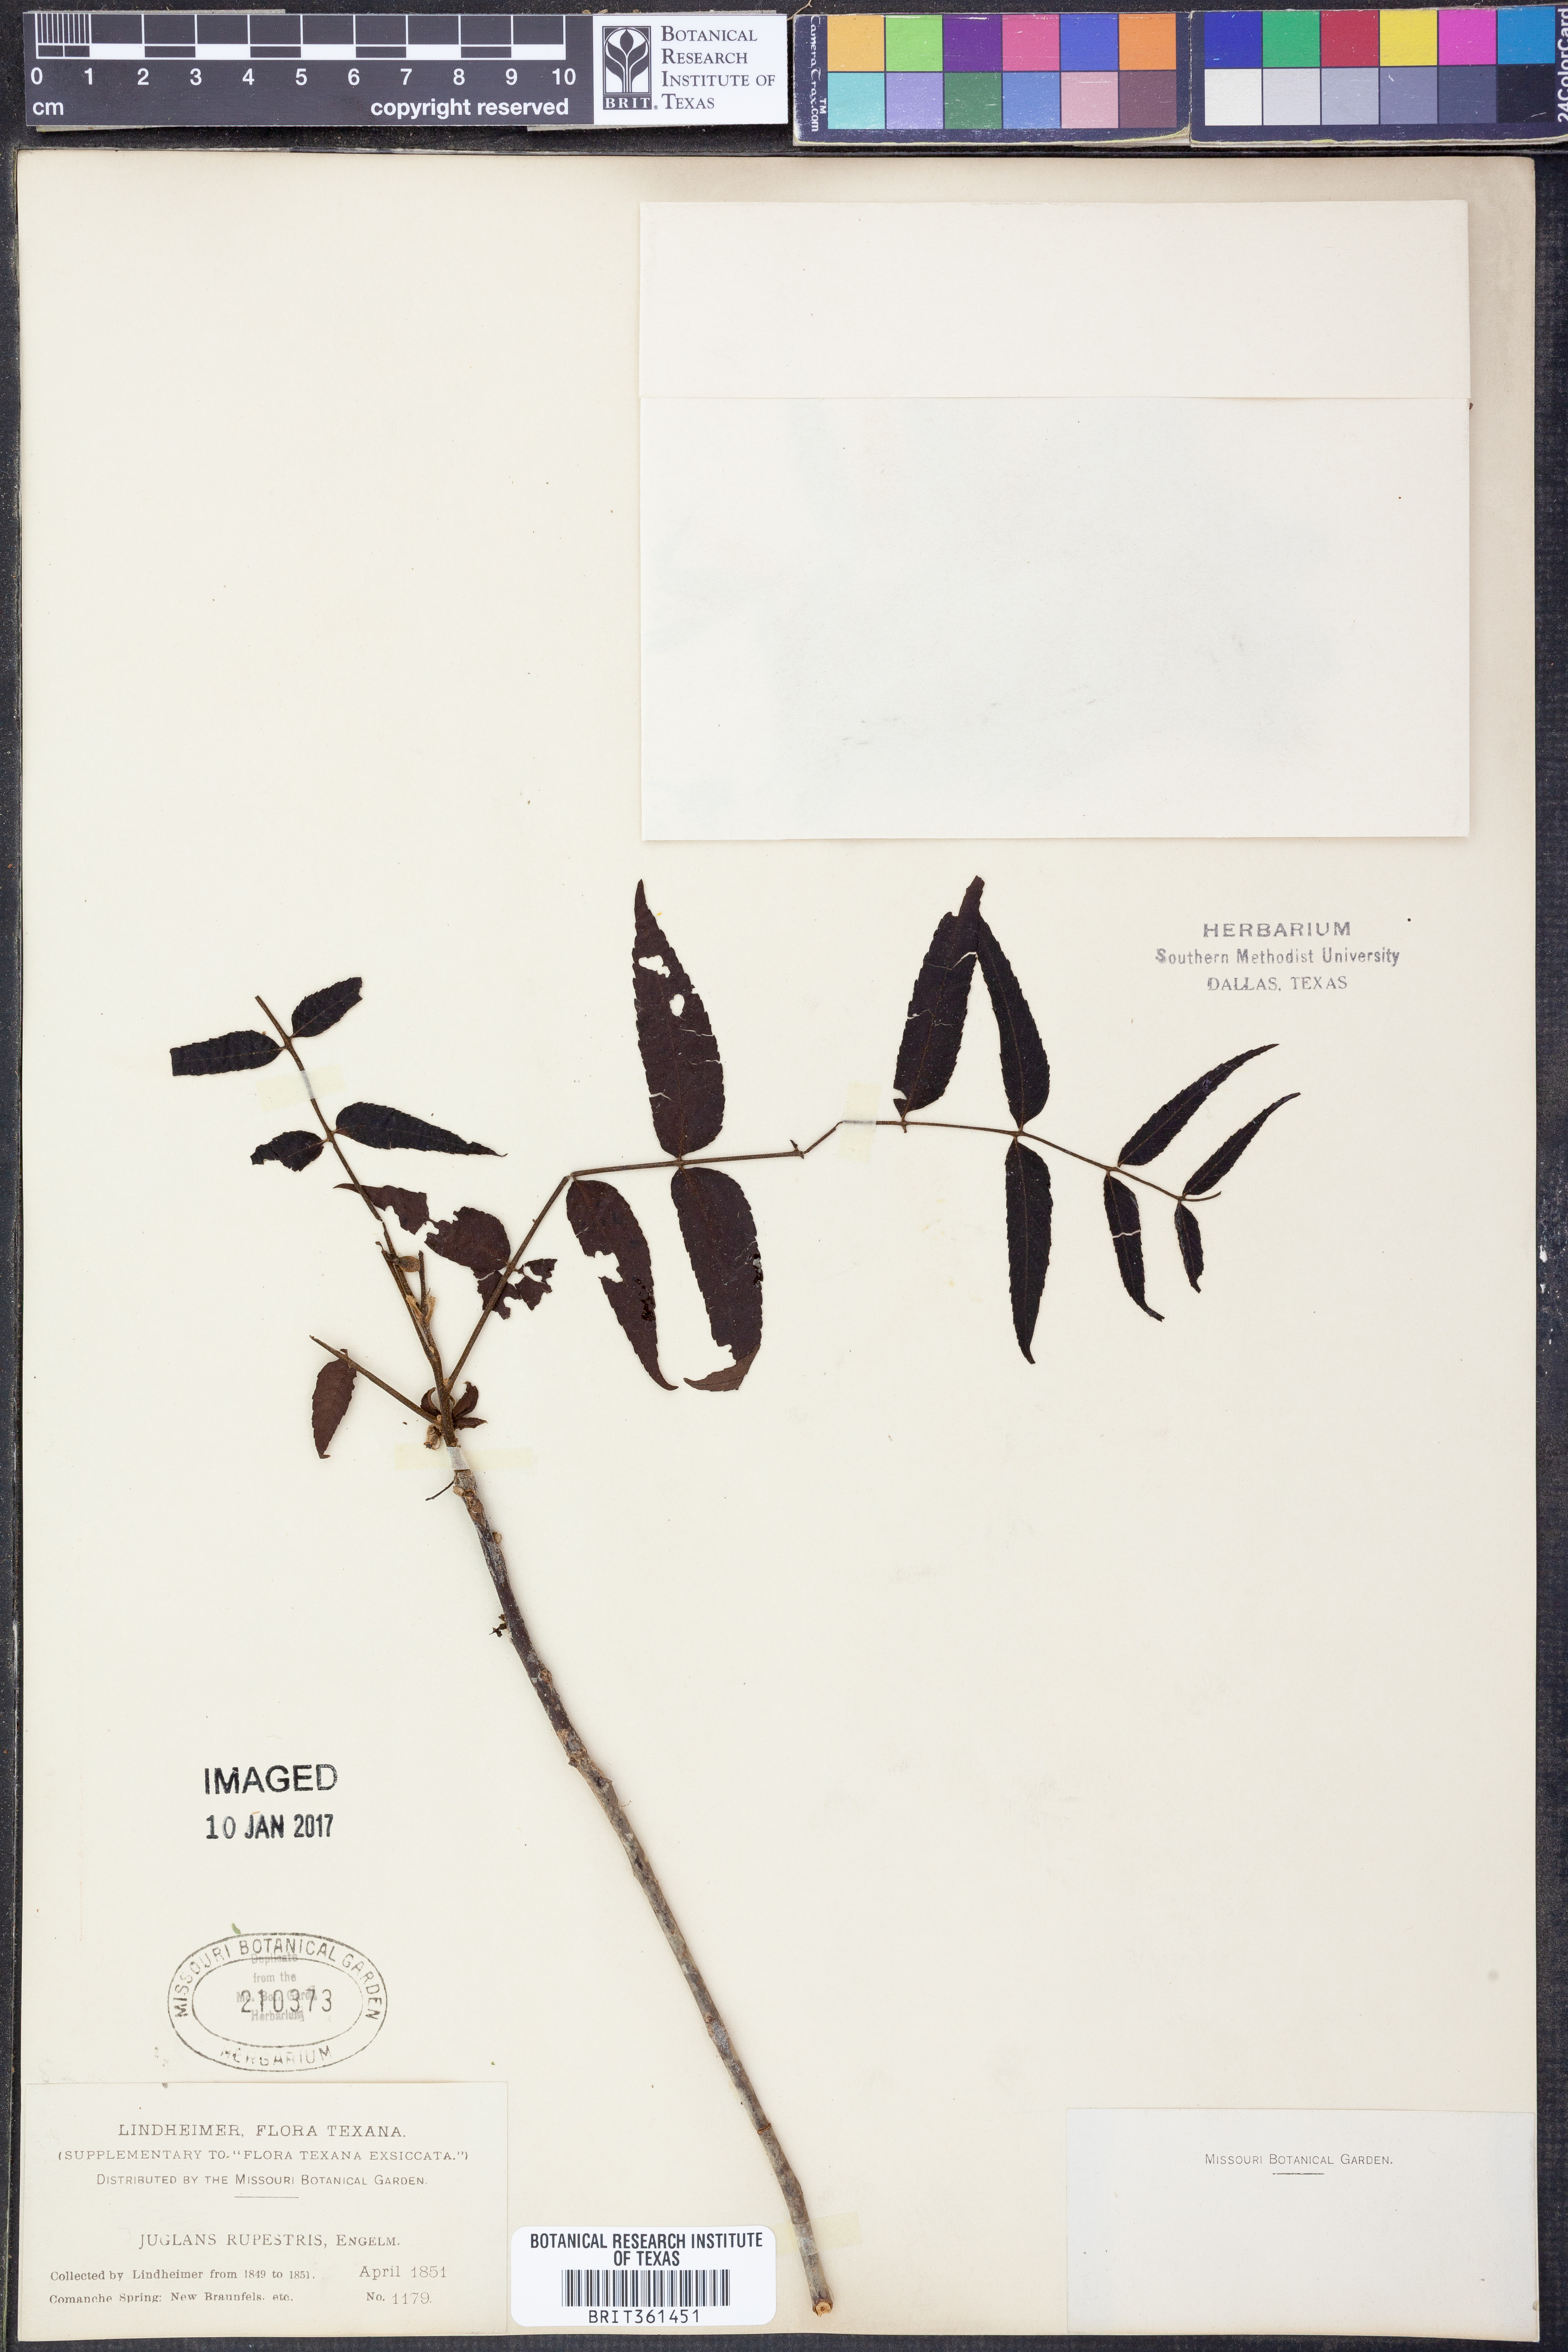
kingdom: Plantae
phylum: Tracheophyta
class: Magnoliopsida
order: Fagales
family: Juglandaceae
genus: Juglans
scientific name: Juglans microcarpa
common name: Texas walnut
